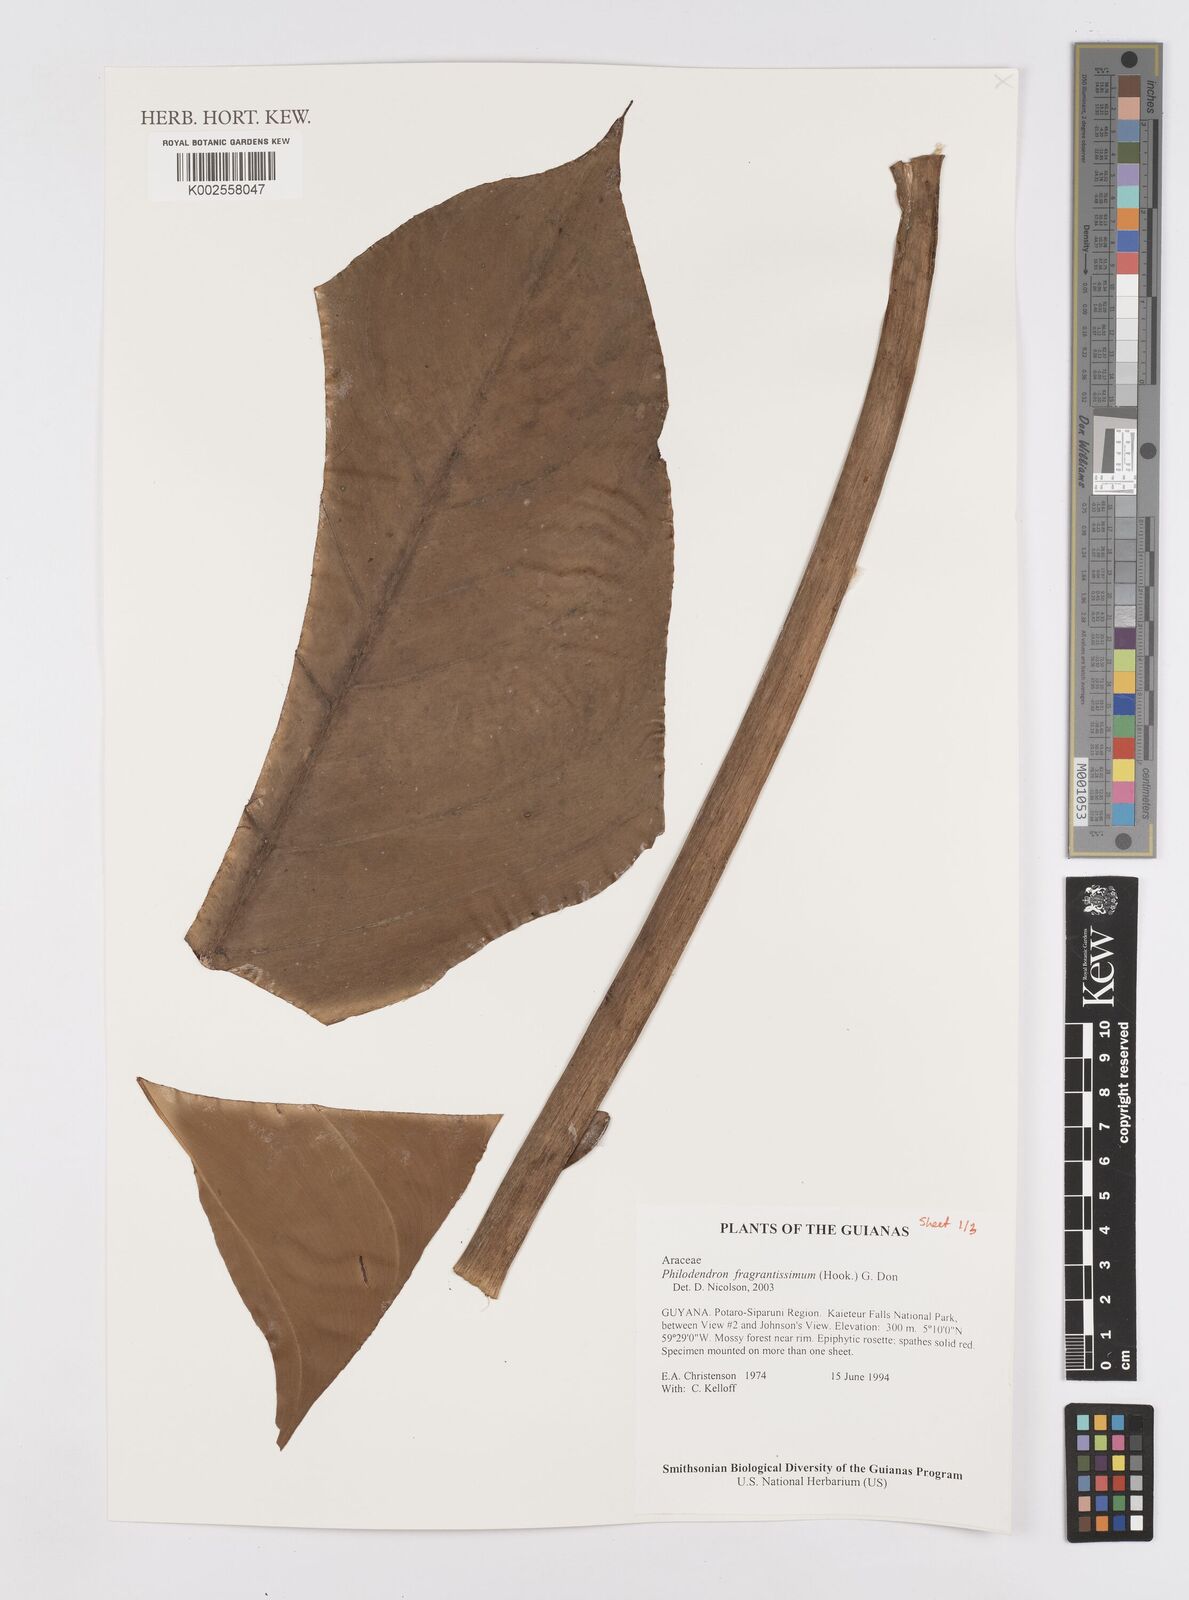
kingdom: Plantae
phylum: Tracheophyta
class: Liliopsida
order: Alismatales
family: Araceae
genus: Philodendron
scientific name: Philodendron fragrantissimum
